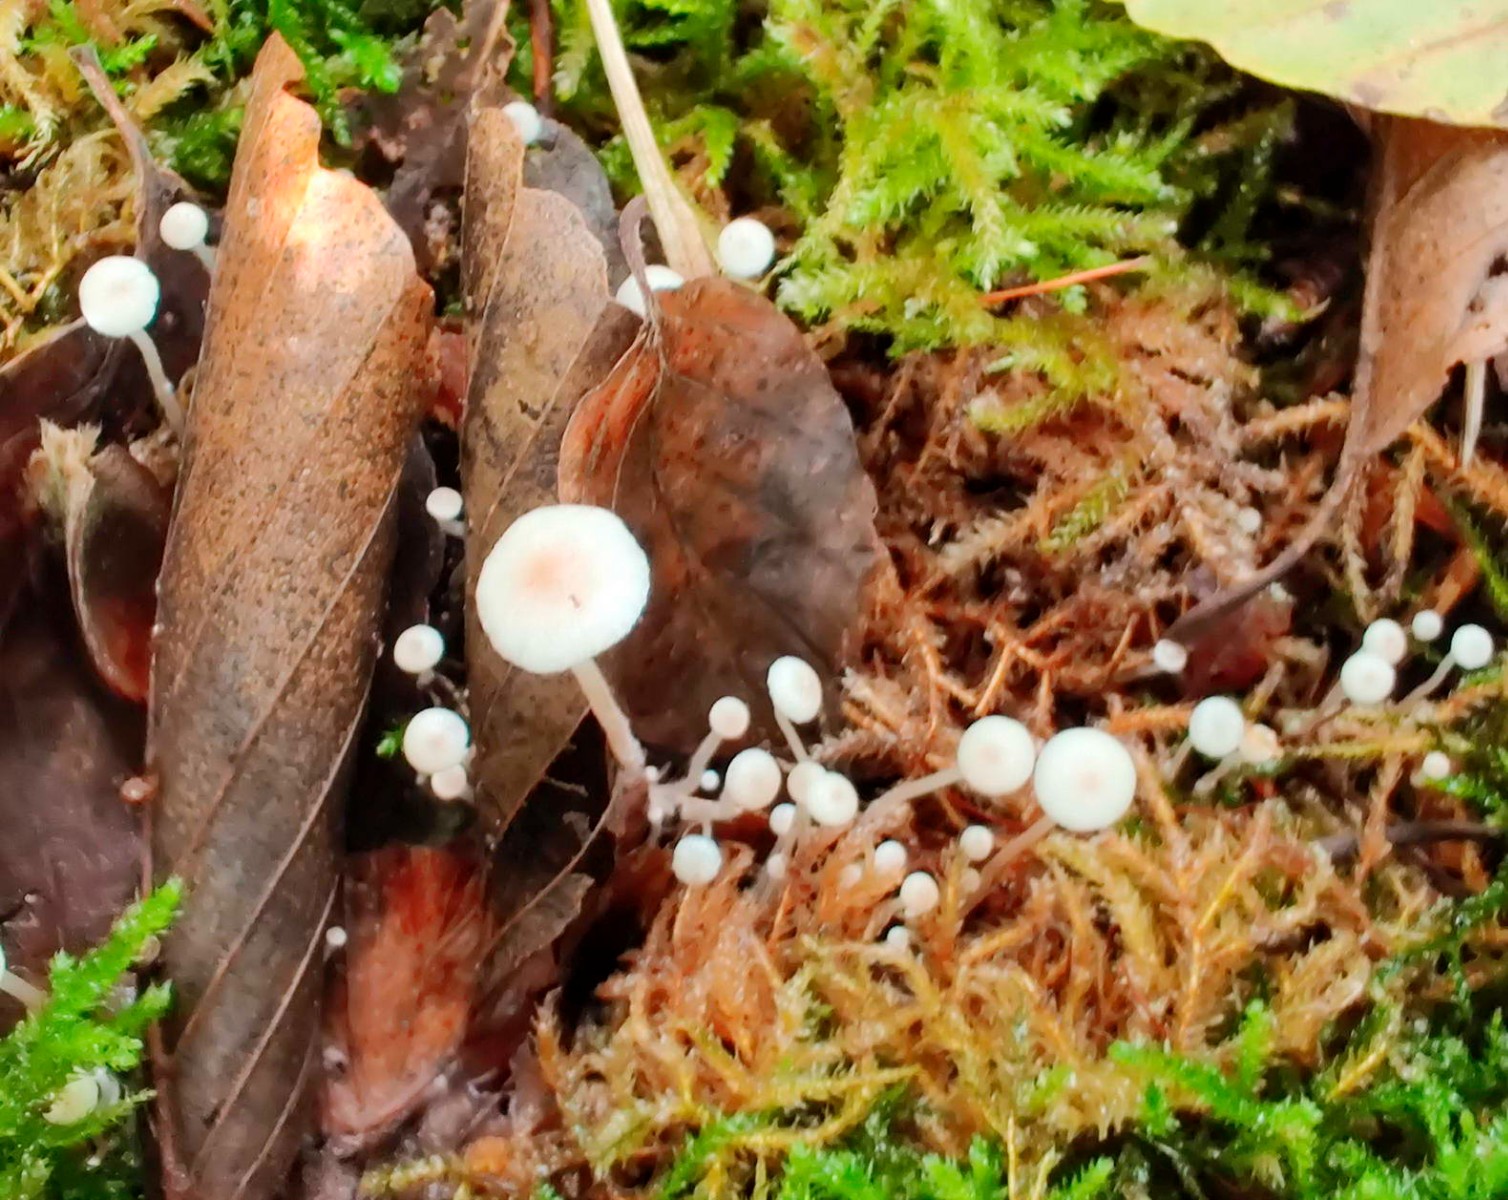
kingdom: Fungi
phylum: Basidiomycota
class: Agaricomycetes
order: Agaricales
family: Tricholomataceae
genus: Collybia
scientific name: Collybia cirrhata
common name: silke-lighat
